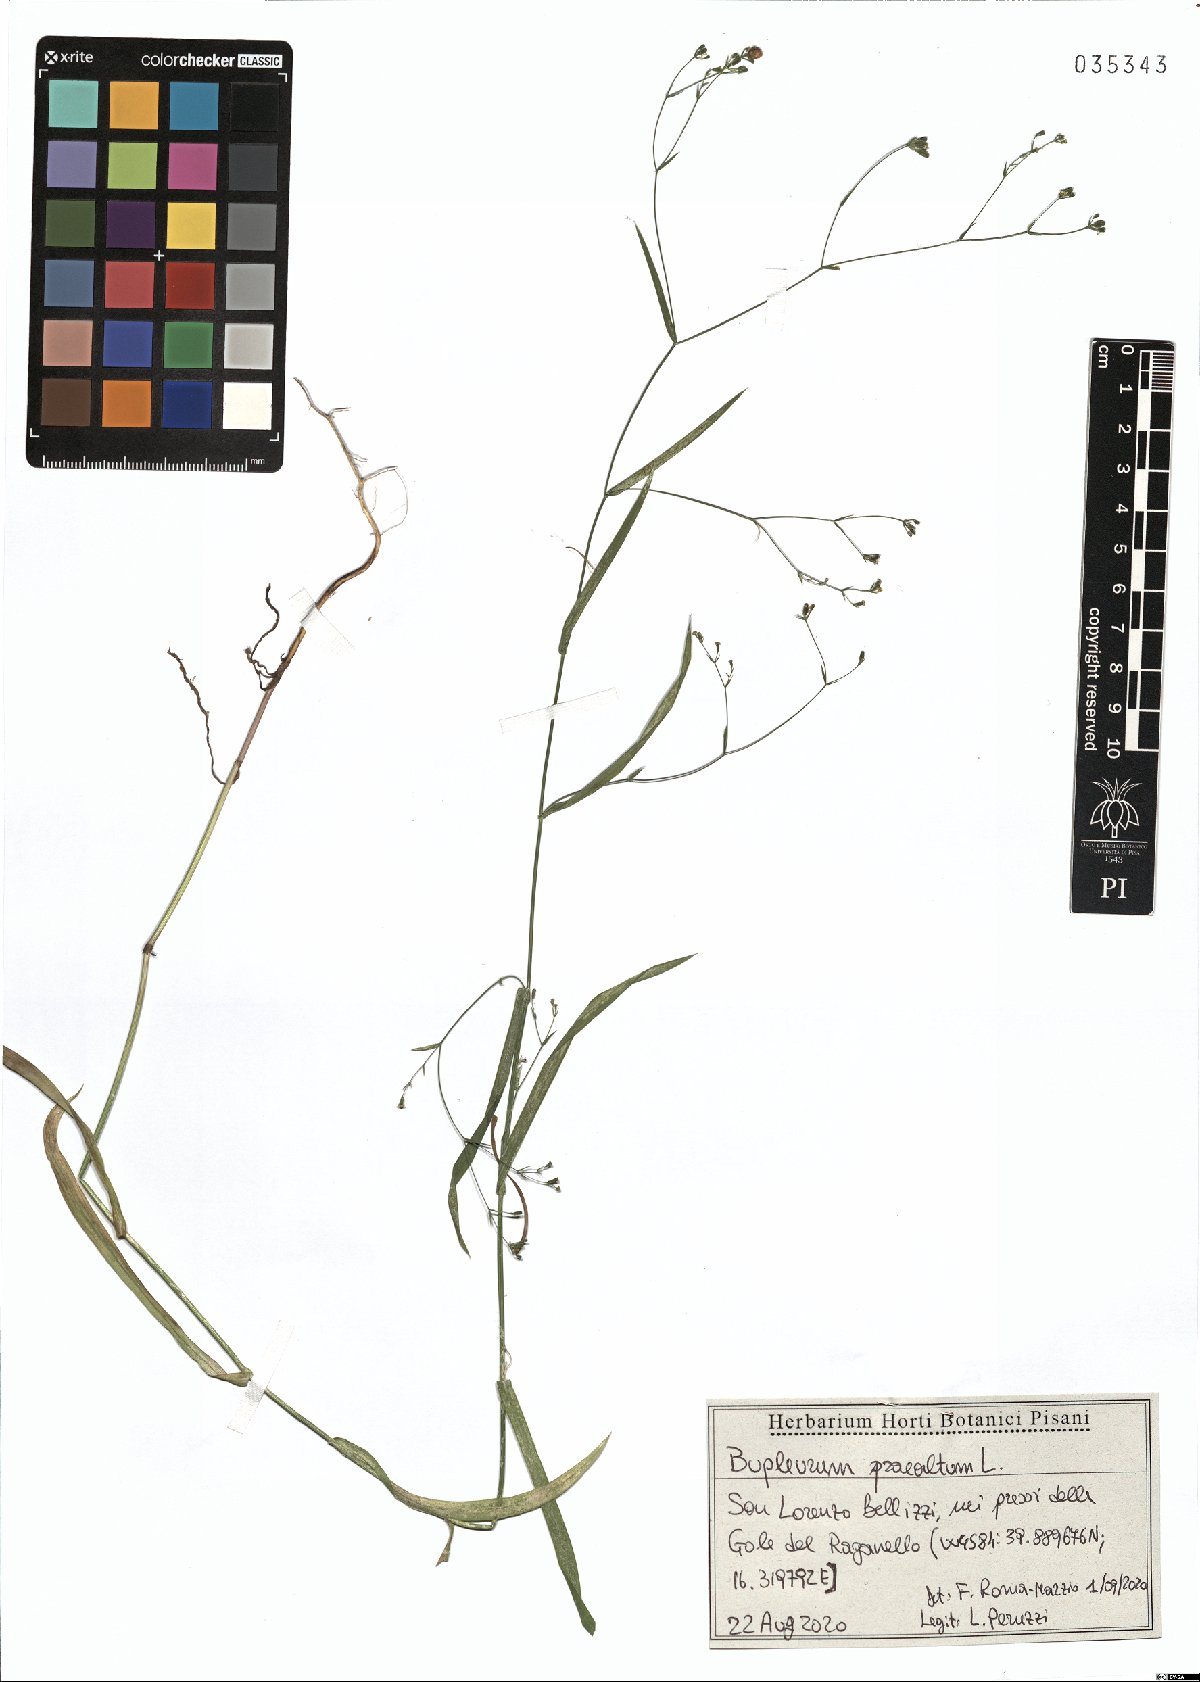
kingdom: Plantae
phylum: Tracheophyta
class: Magnoliopsida
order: Apiales
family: Apiaceae
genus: Bupleurum
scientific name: Bupleurum praealtum
